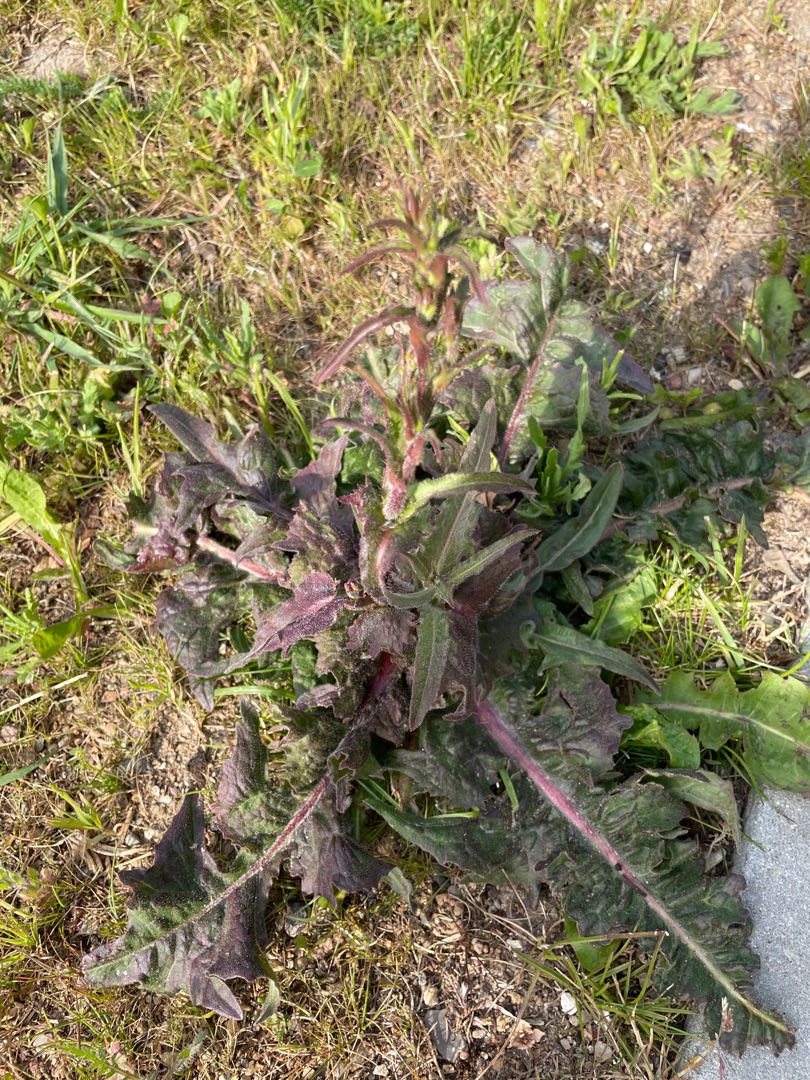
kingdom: Plantae
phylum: Tracheophyta
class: Magnoliopsida
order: Asterales
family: Asteraceae
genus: Cichorium
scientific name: Cichorium intybus
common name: Cikorie
